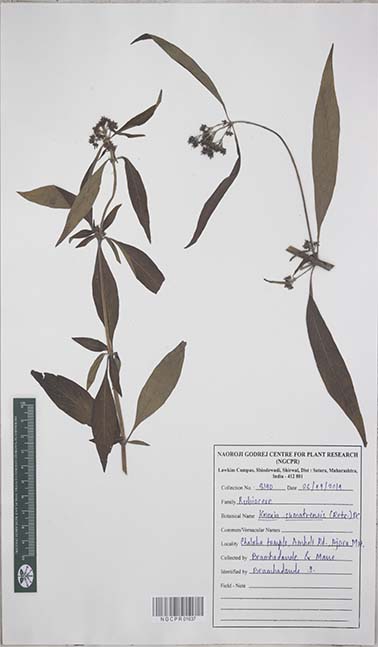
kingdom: Plantae
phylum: Tracheophyta
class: Magnoliopsida
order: Gentianales
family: Rubiaceae
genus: Knoxia
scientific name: Knoxia sumatrensis
